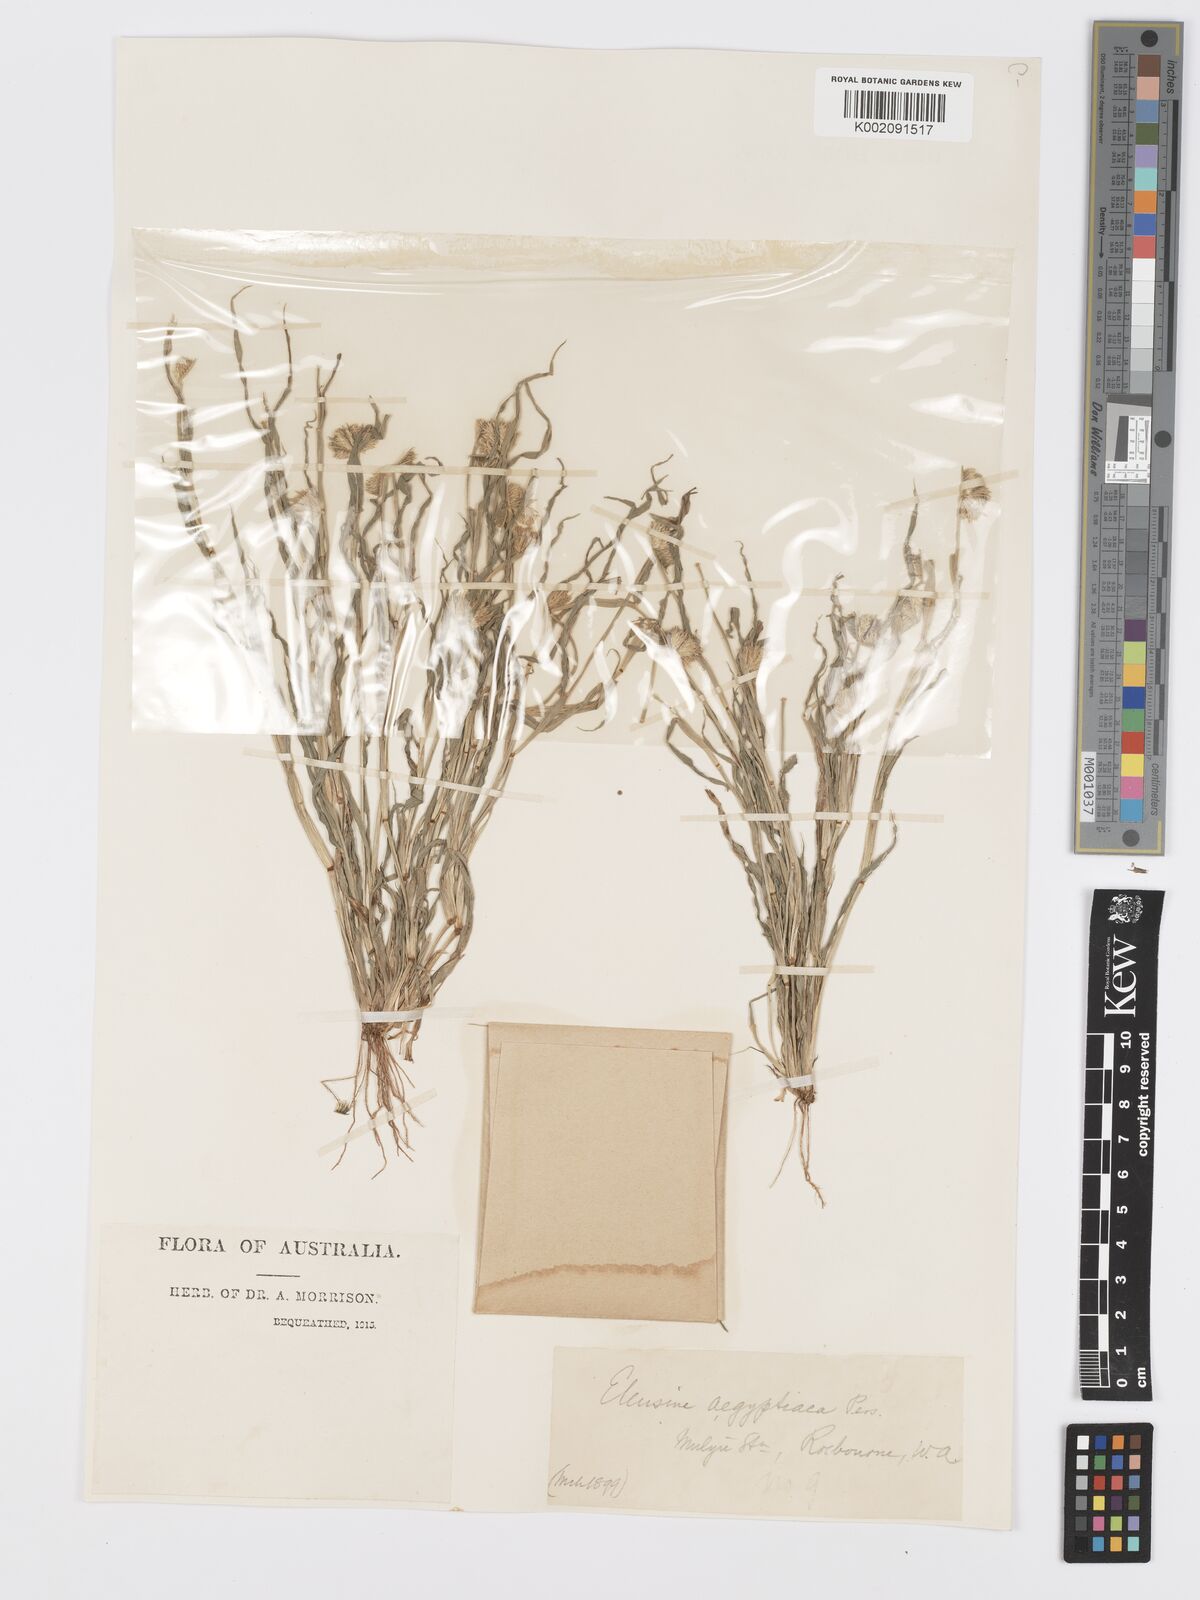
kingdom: Plantae
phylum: Tracheophyta
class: Liliopsida
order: Poales
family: Poaceae
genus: Dactyloctenium
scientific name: Dactyloctenium radulans
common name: Button-grass
